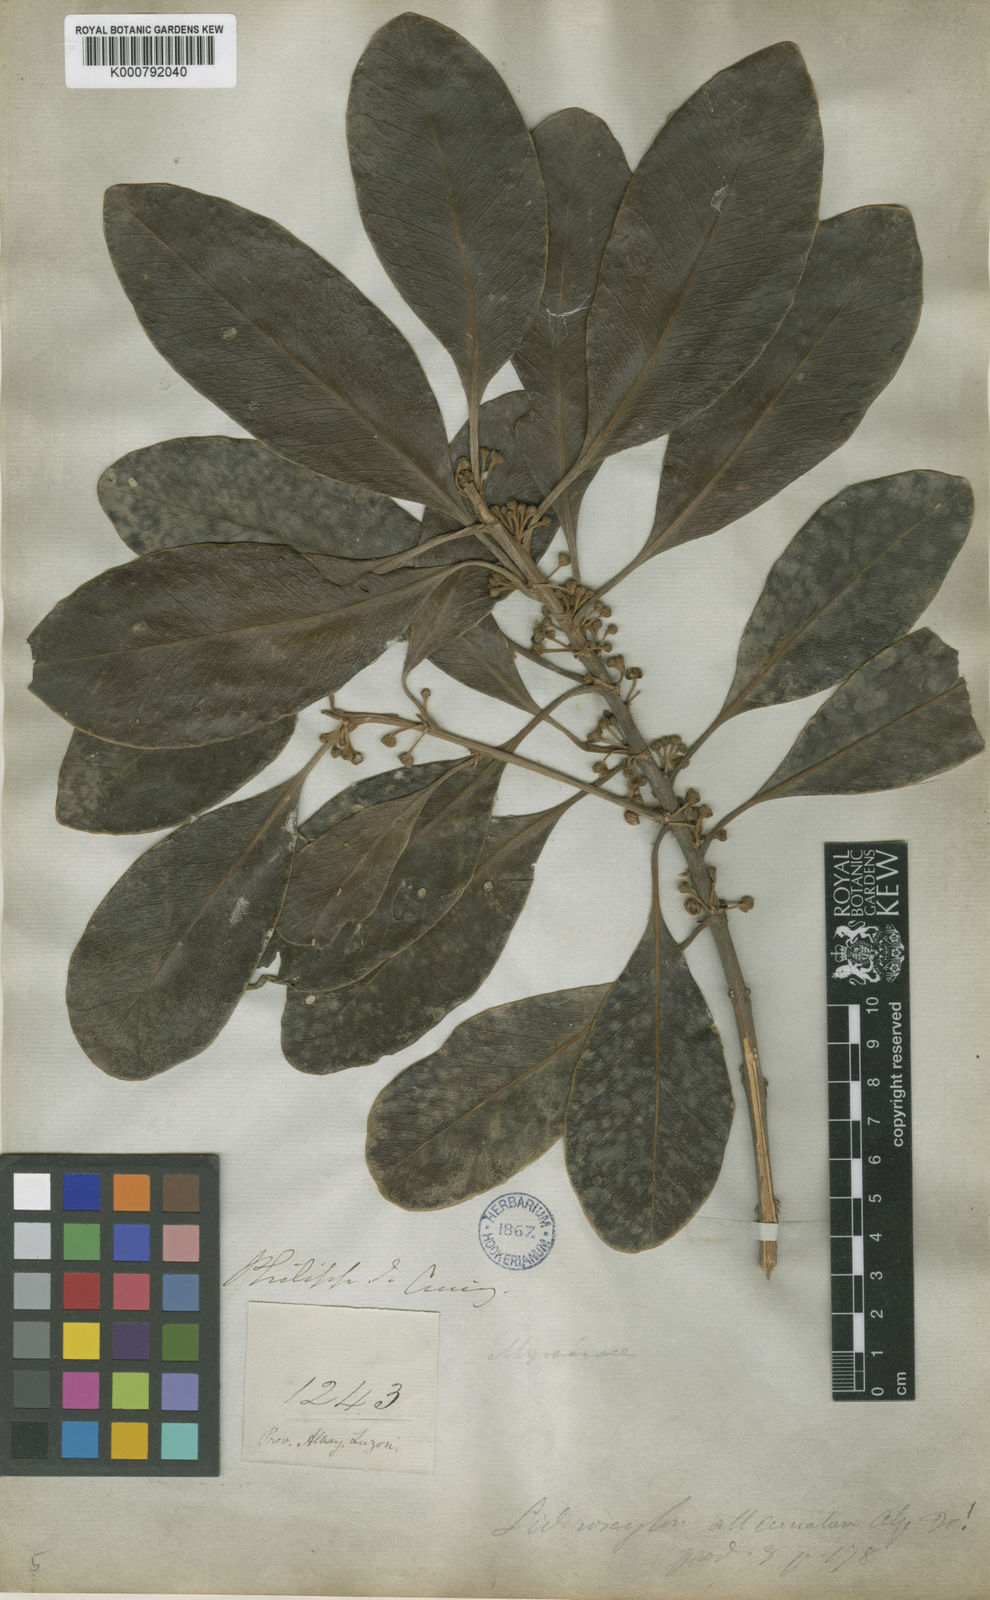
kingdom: Plantae
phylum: Tracheophyta
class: Magnoliopsida
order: Ericales
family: Sapotaceae
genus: Planchonella
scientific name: Planchonella obovata
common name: Black-ash
